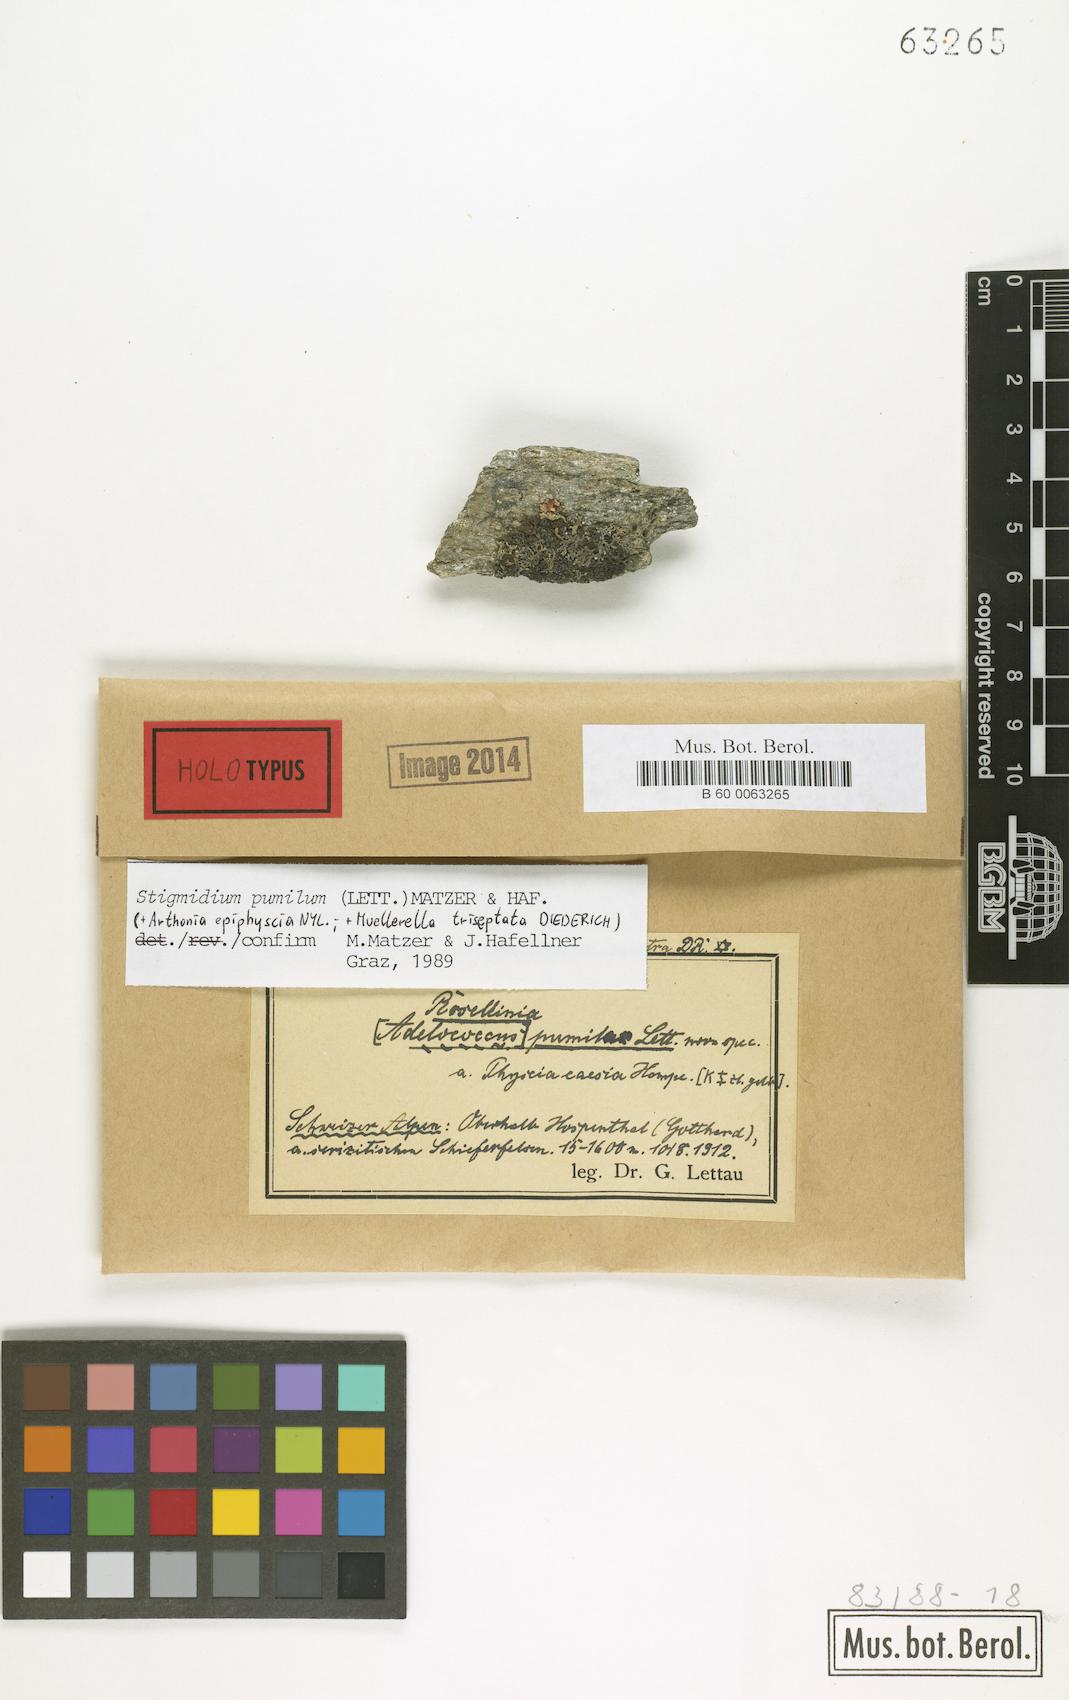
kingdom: Fungi
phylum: Ascomycota
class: Dothideomycetes
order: Mycosphaerellales
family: Mycosphaerellaceae
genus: Stigmidium
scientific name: Stigmidium pumilum
